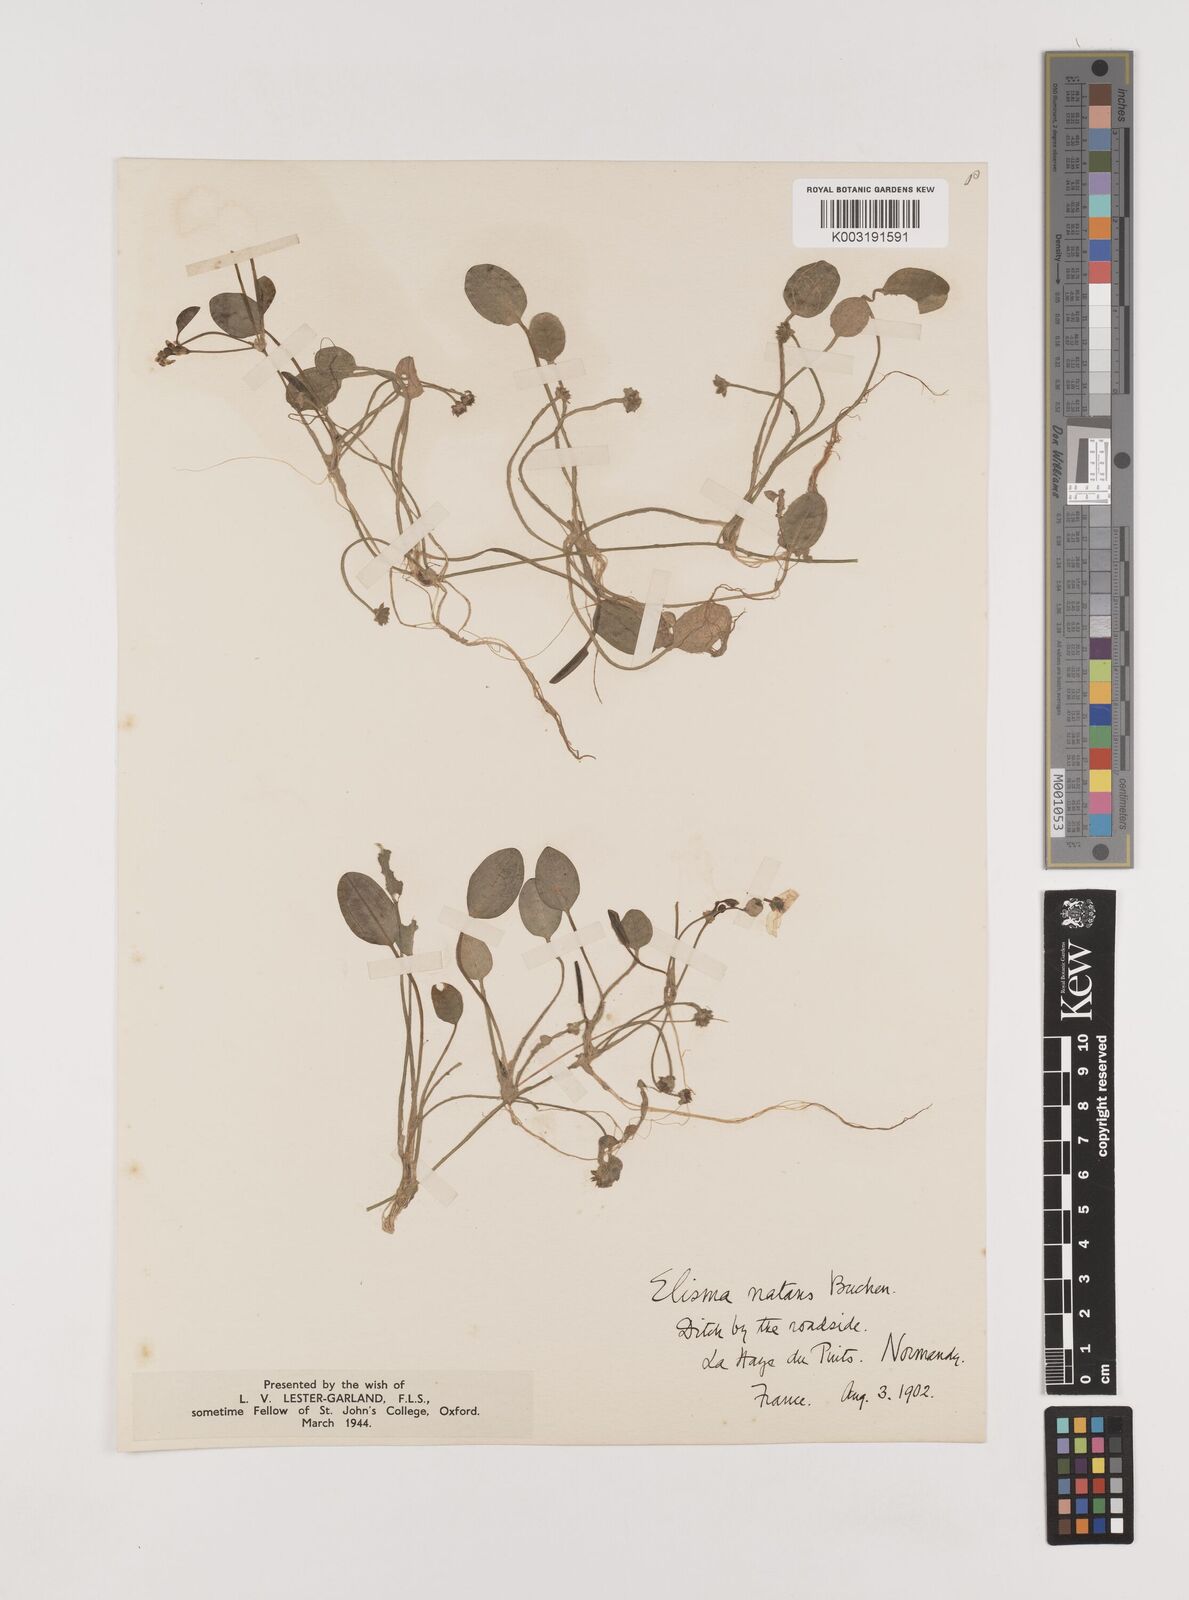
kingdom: Plantae
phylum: Tracheophyta
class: Liliopsida
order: Alismatales
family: Alismataceae
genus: Luronium
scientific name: Luronium natans
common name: Floating water-plantain
